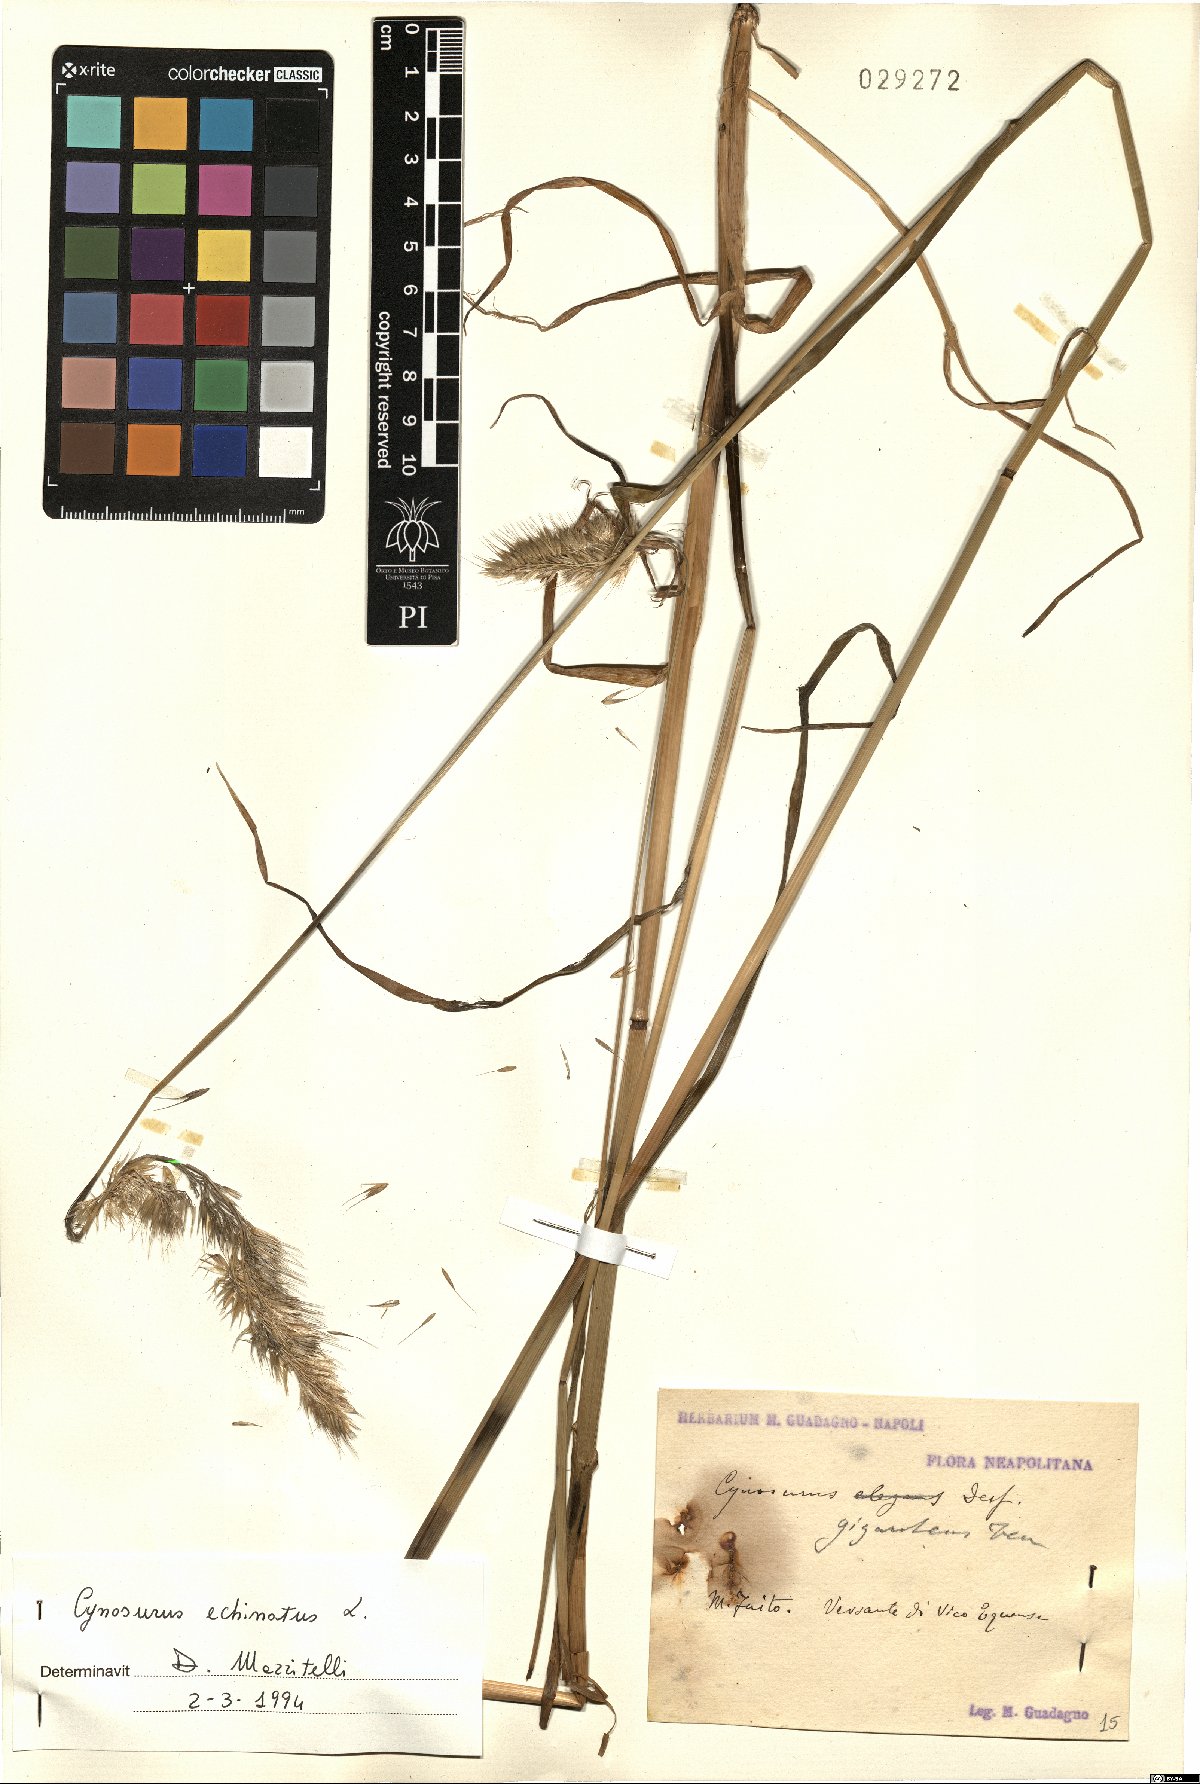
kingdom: Plantae
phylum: Tracheophyta
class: Liliopsida
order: Poales
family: Poaceae
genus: Cynosurus
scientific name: Cynosurus echinatus
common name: Rough dog's-tail
